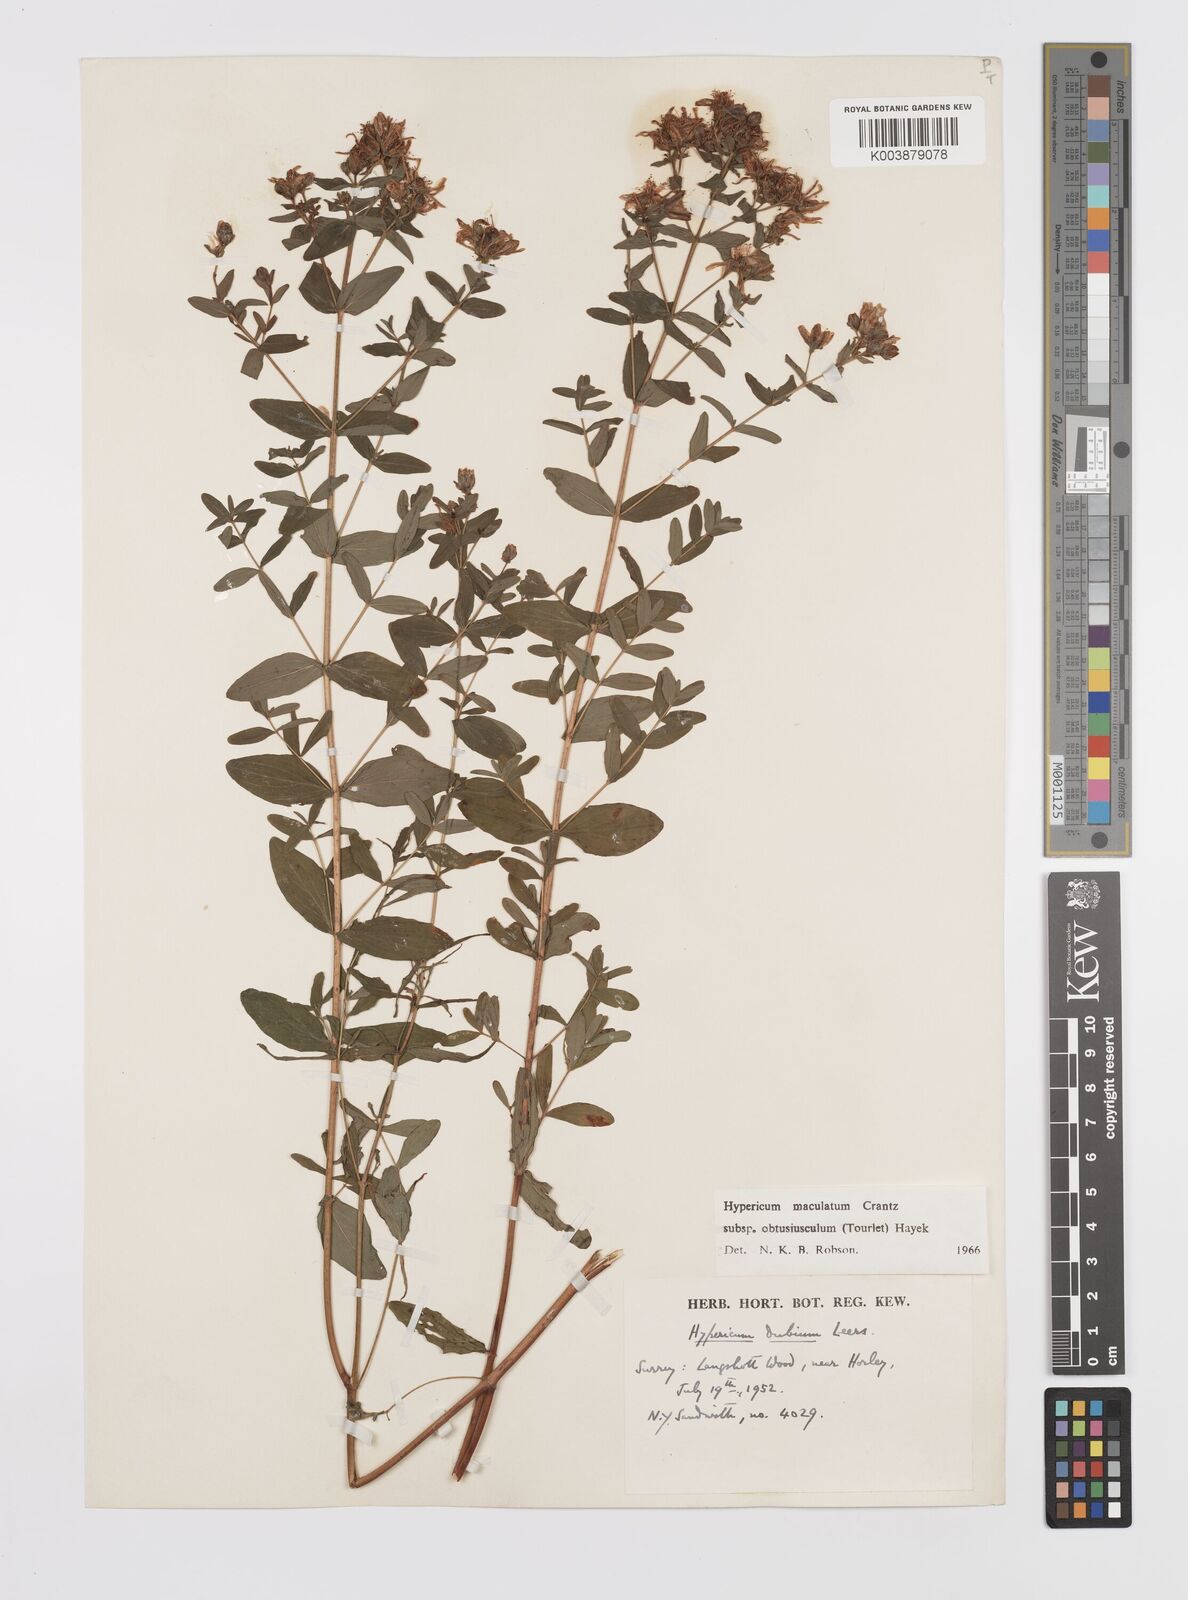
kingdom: Plantae
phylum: Tracheophyta
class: Magnoliopsida
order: Malpighiales
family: Hypericaceae
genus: Hypericum
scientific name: Hypericum dubium
